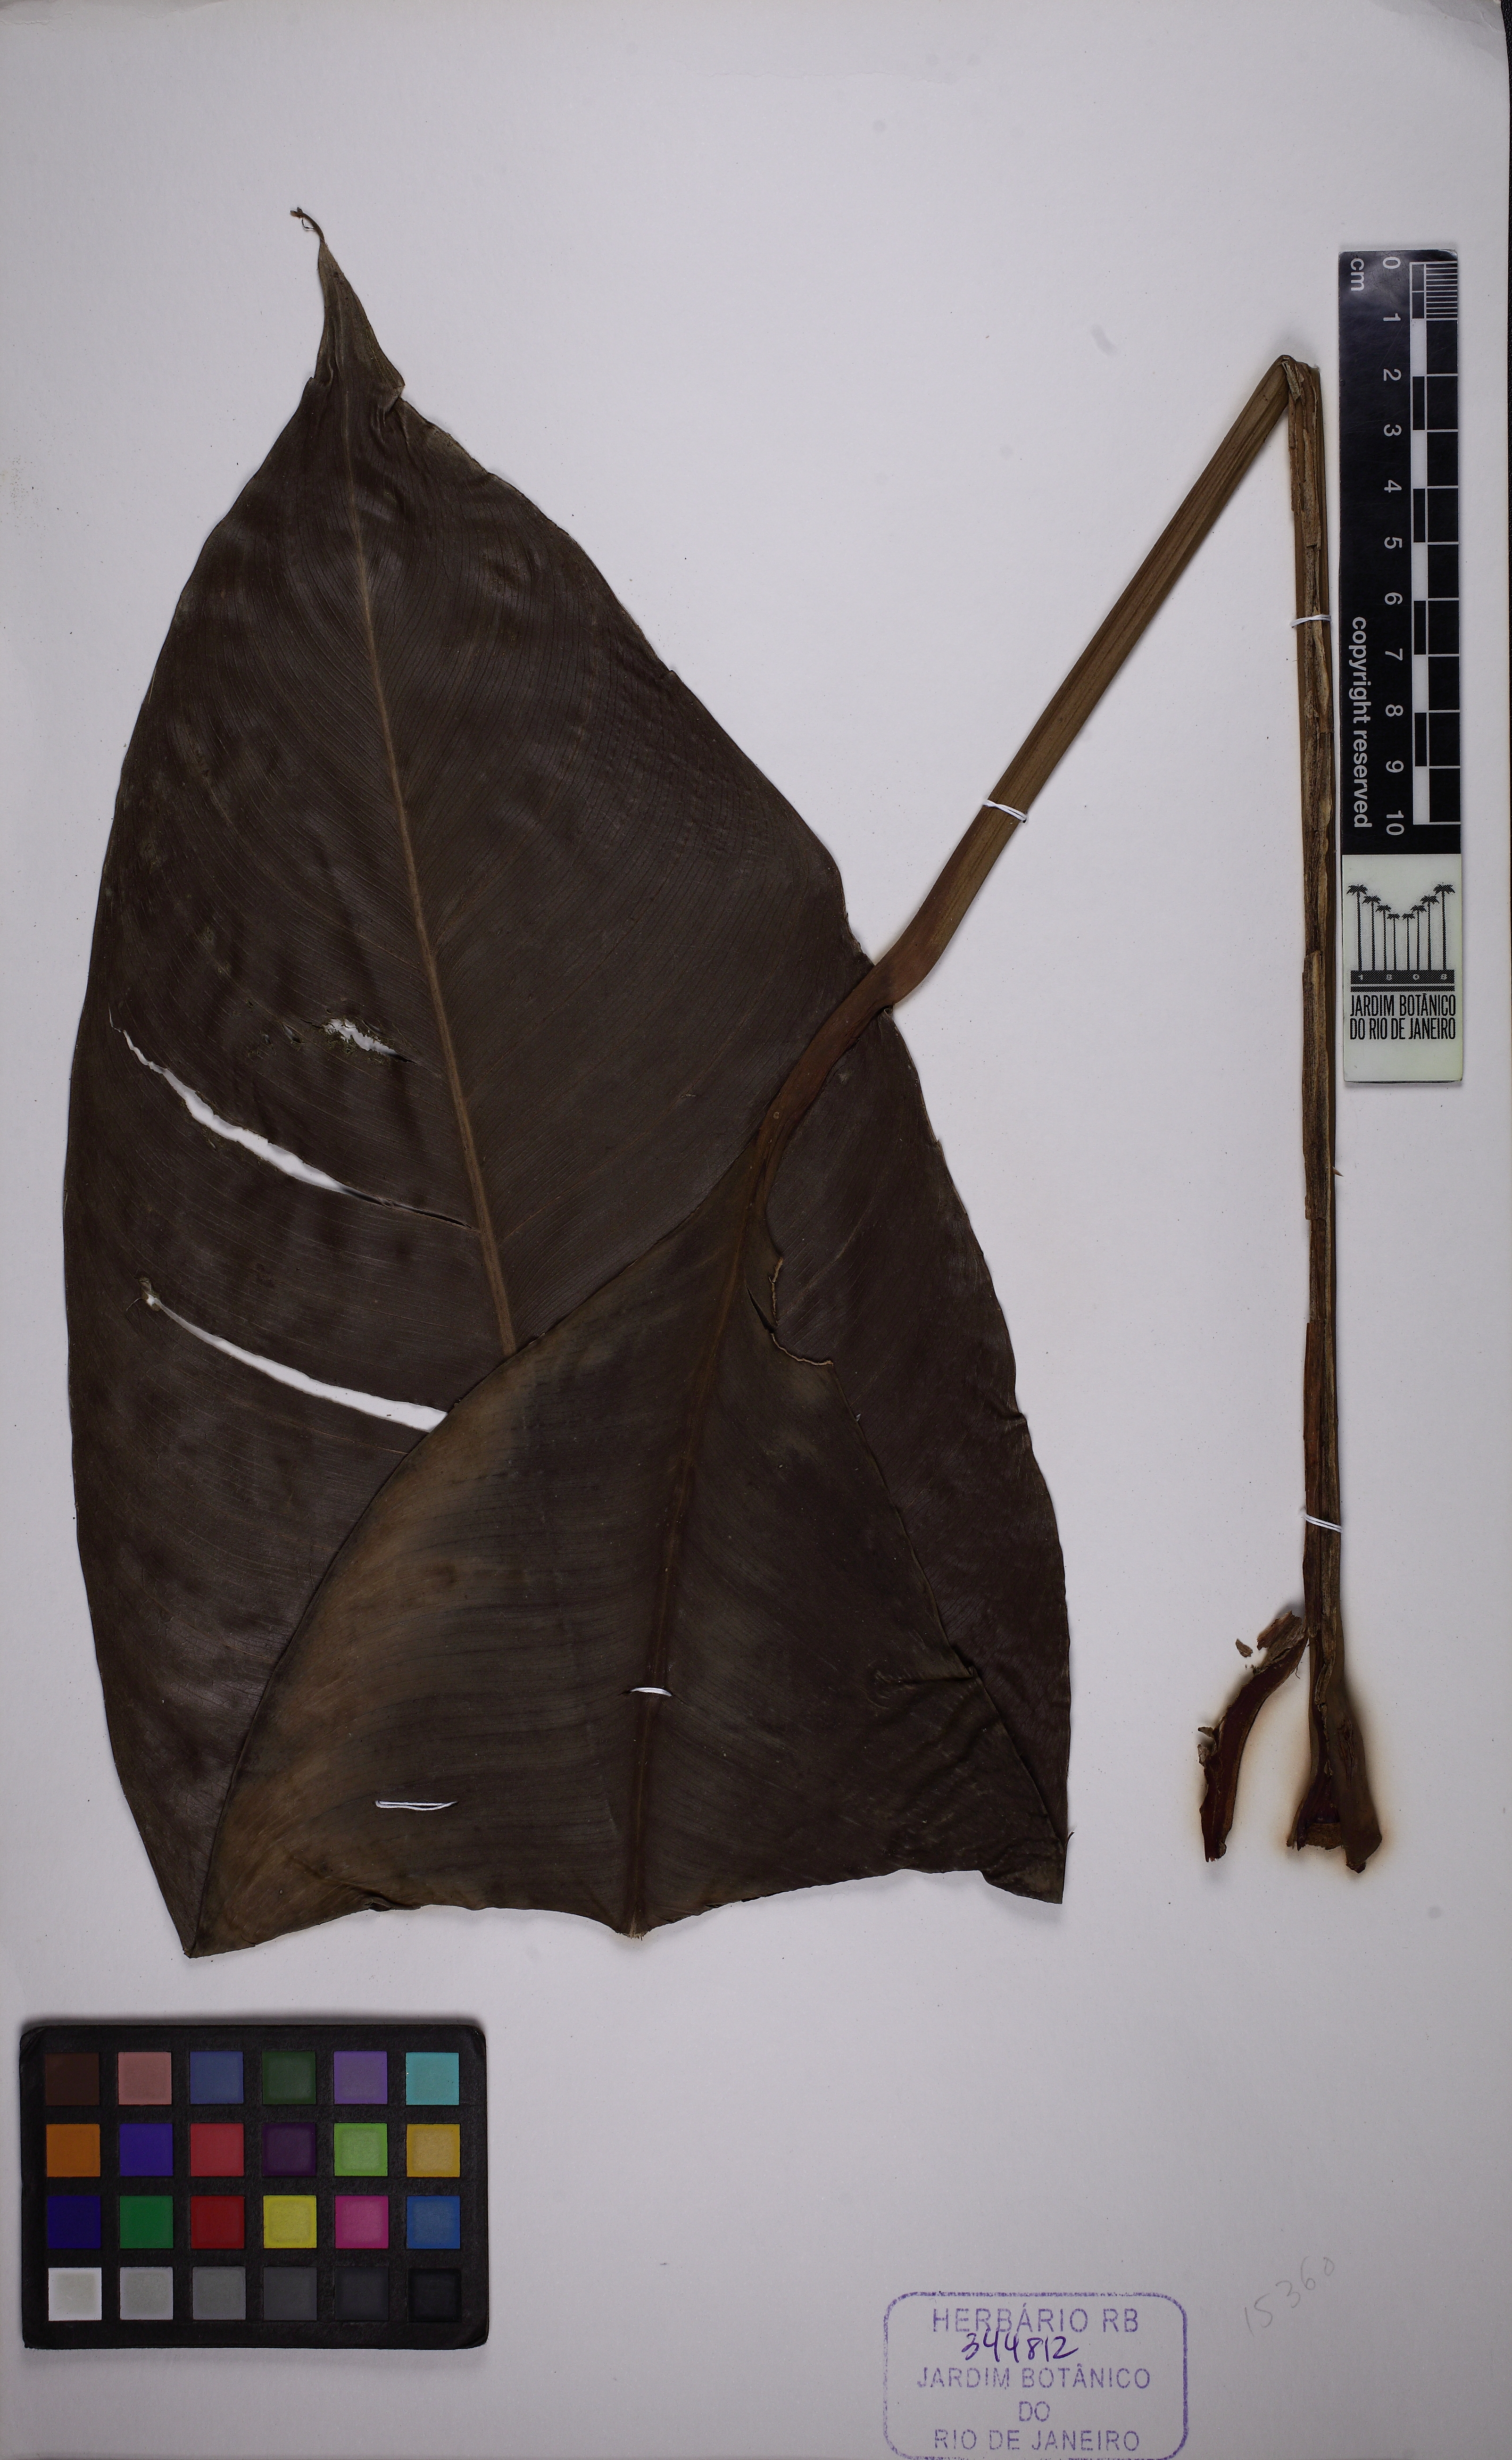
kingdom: Plantae
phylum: Tracheophyta
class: Liliopsida
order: Alismatales
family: Araceae
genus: Rhodospatha
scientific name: Rhodospatha oblongata
